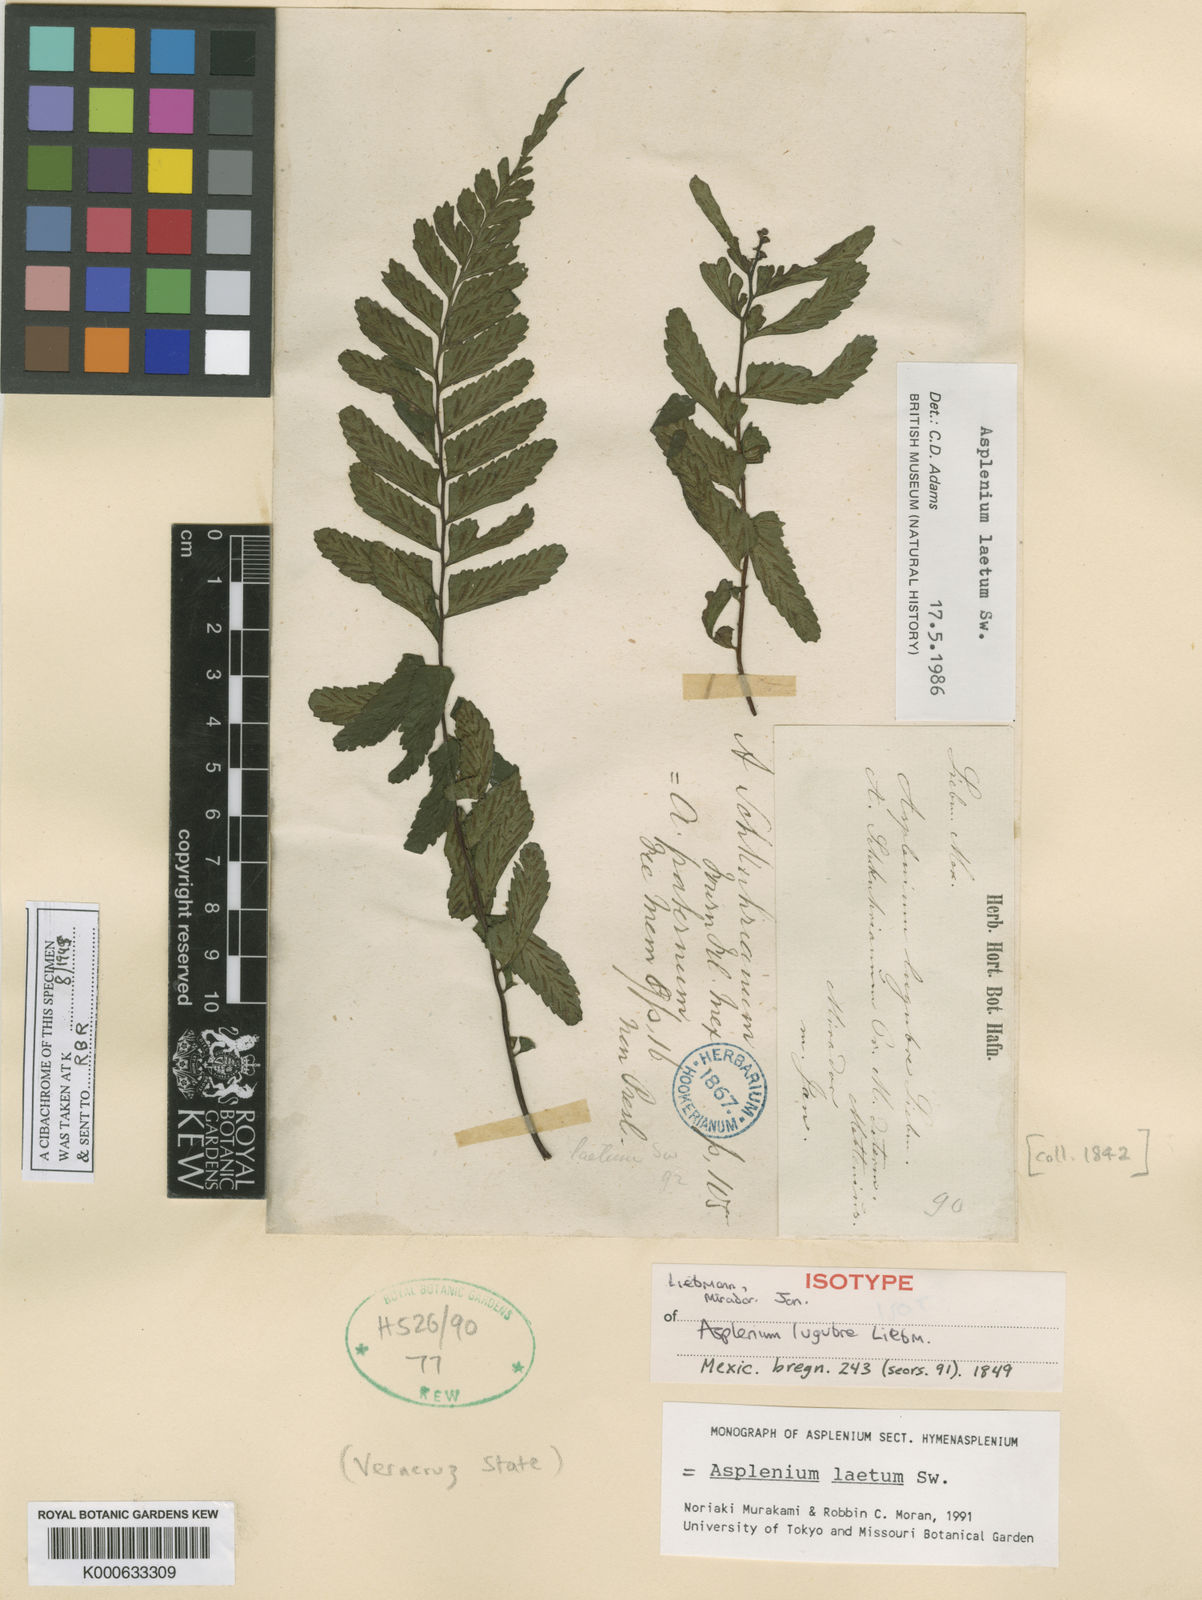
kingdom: Plantae
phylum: Tracheophyta
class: Polypodiopsida
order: Polypodiales
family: Aspleniaceae
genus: Hymenasplenium
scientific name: Hymenasplenium laetum
